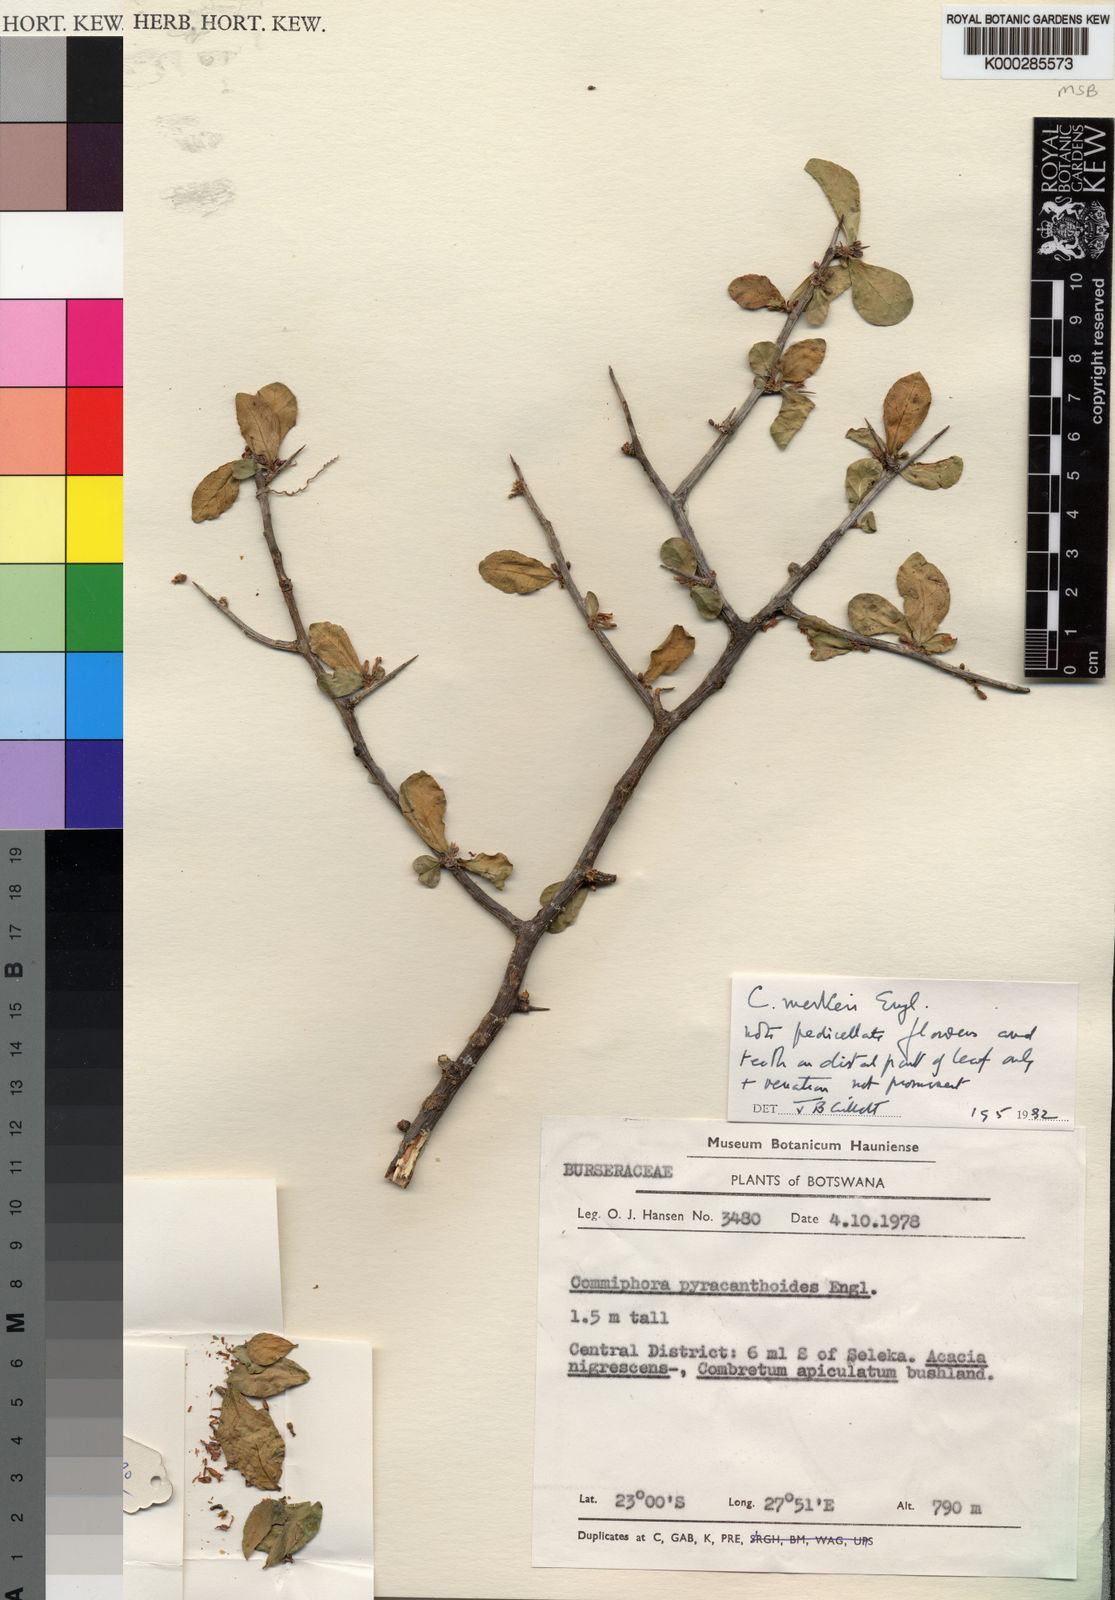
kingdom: Plantae
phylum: Tracheophyta
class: Magnoliopsida
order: Sapindales
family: Burseraceae
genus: Commiphora
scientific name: Commiphora viminea
